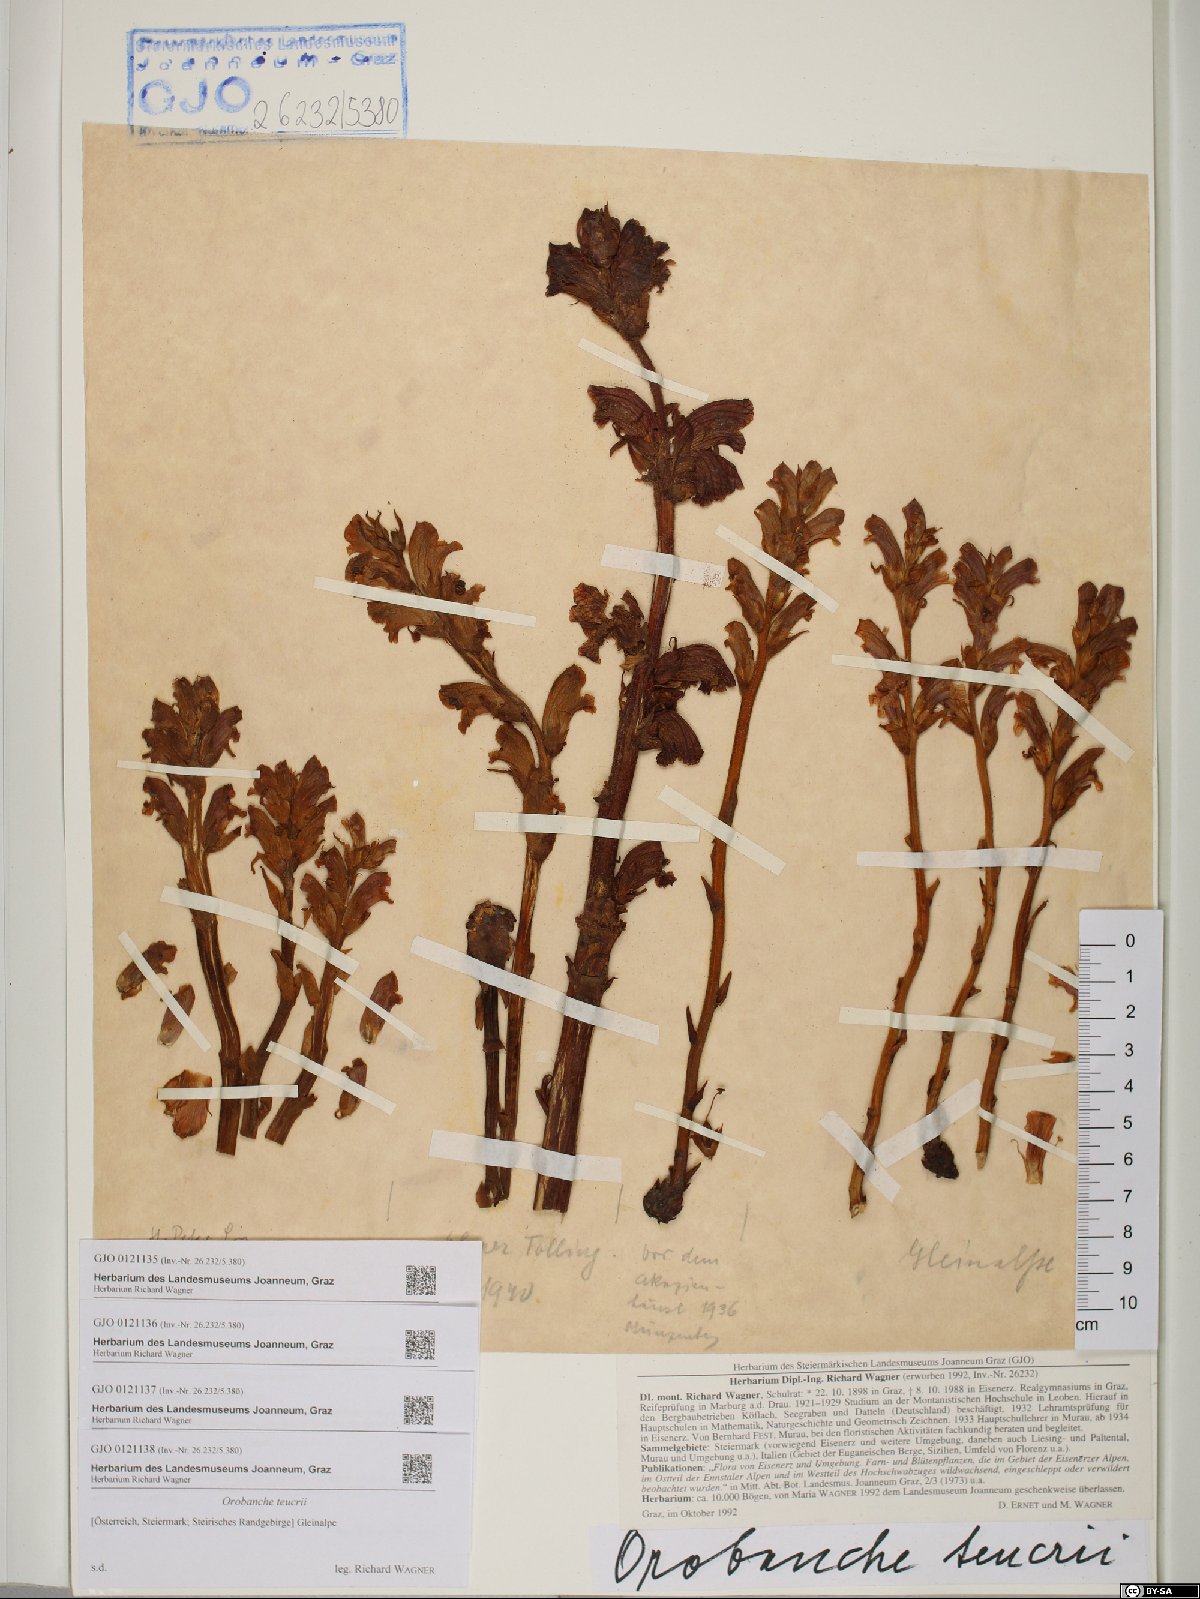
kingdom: Plantae
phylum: Tracheophyta
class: Magnoliopsida
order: Lamiales
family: Orobanchaceae
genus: Orobanche
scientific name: Orobanche teucrii
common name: Germander broomrape
